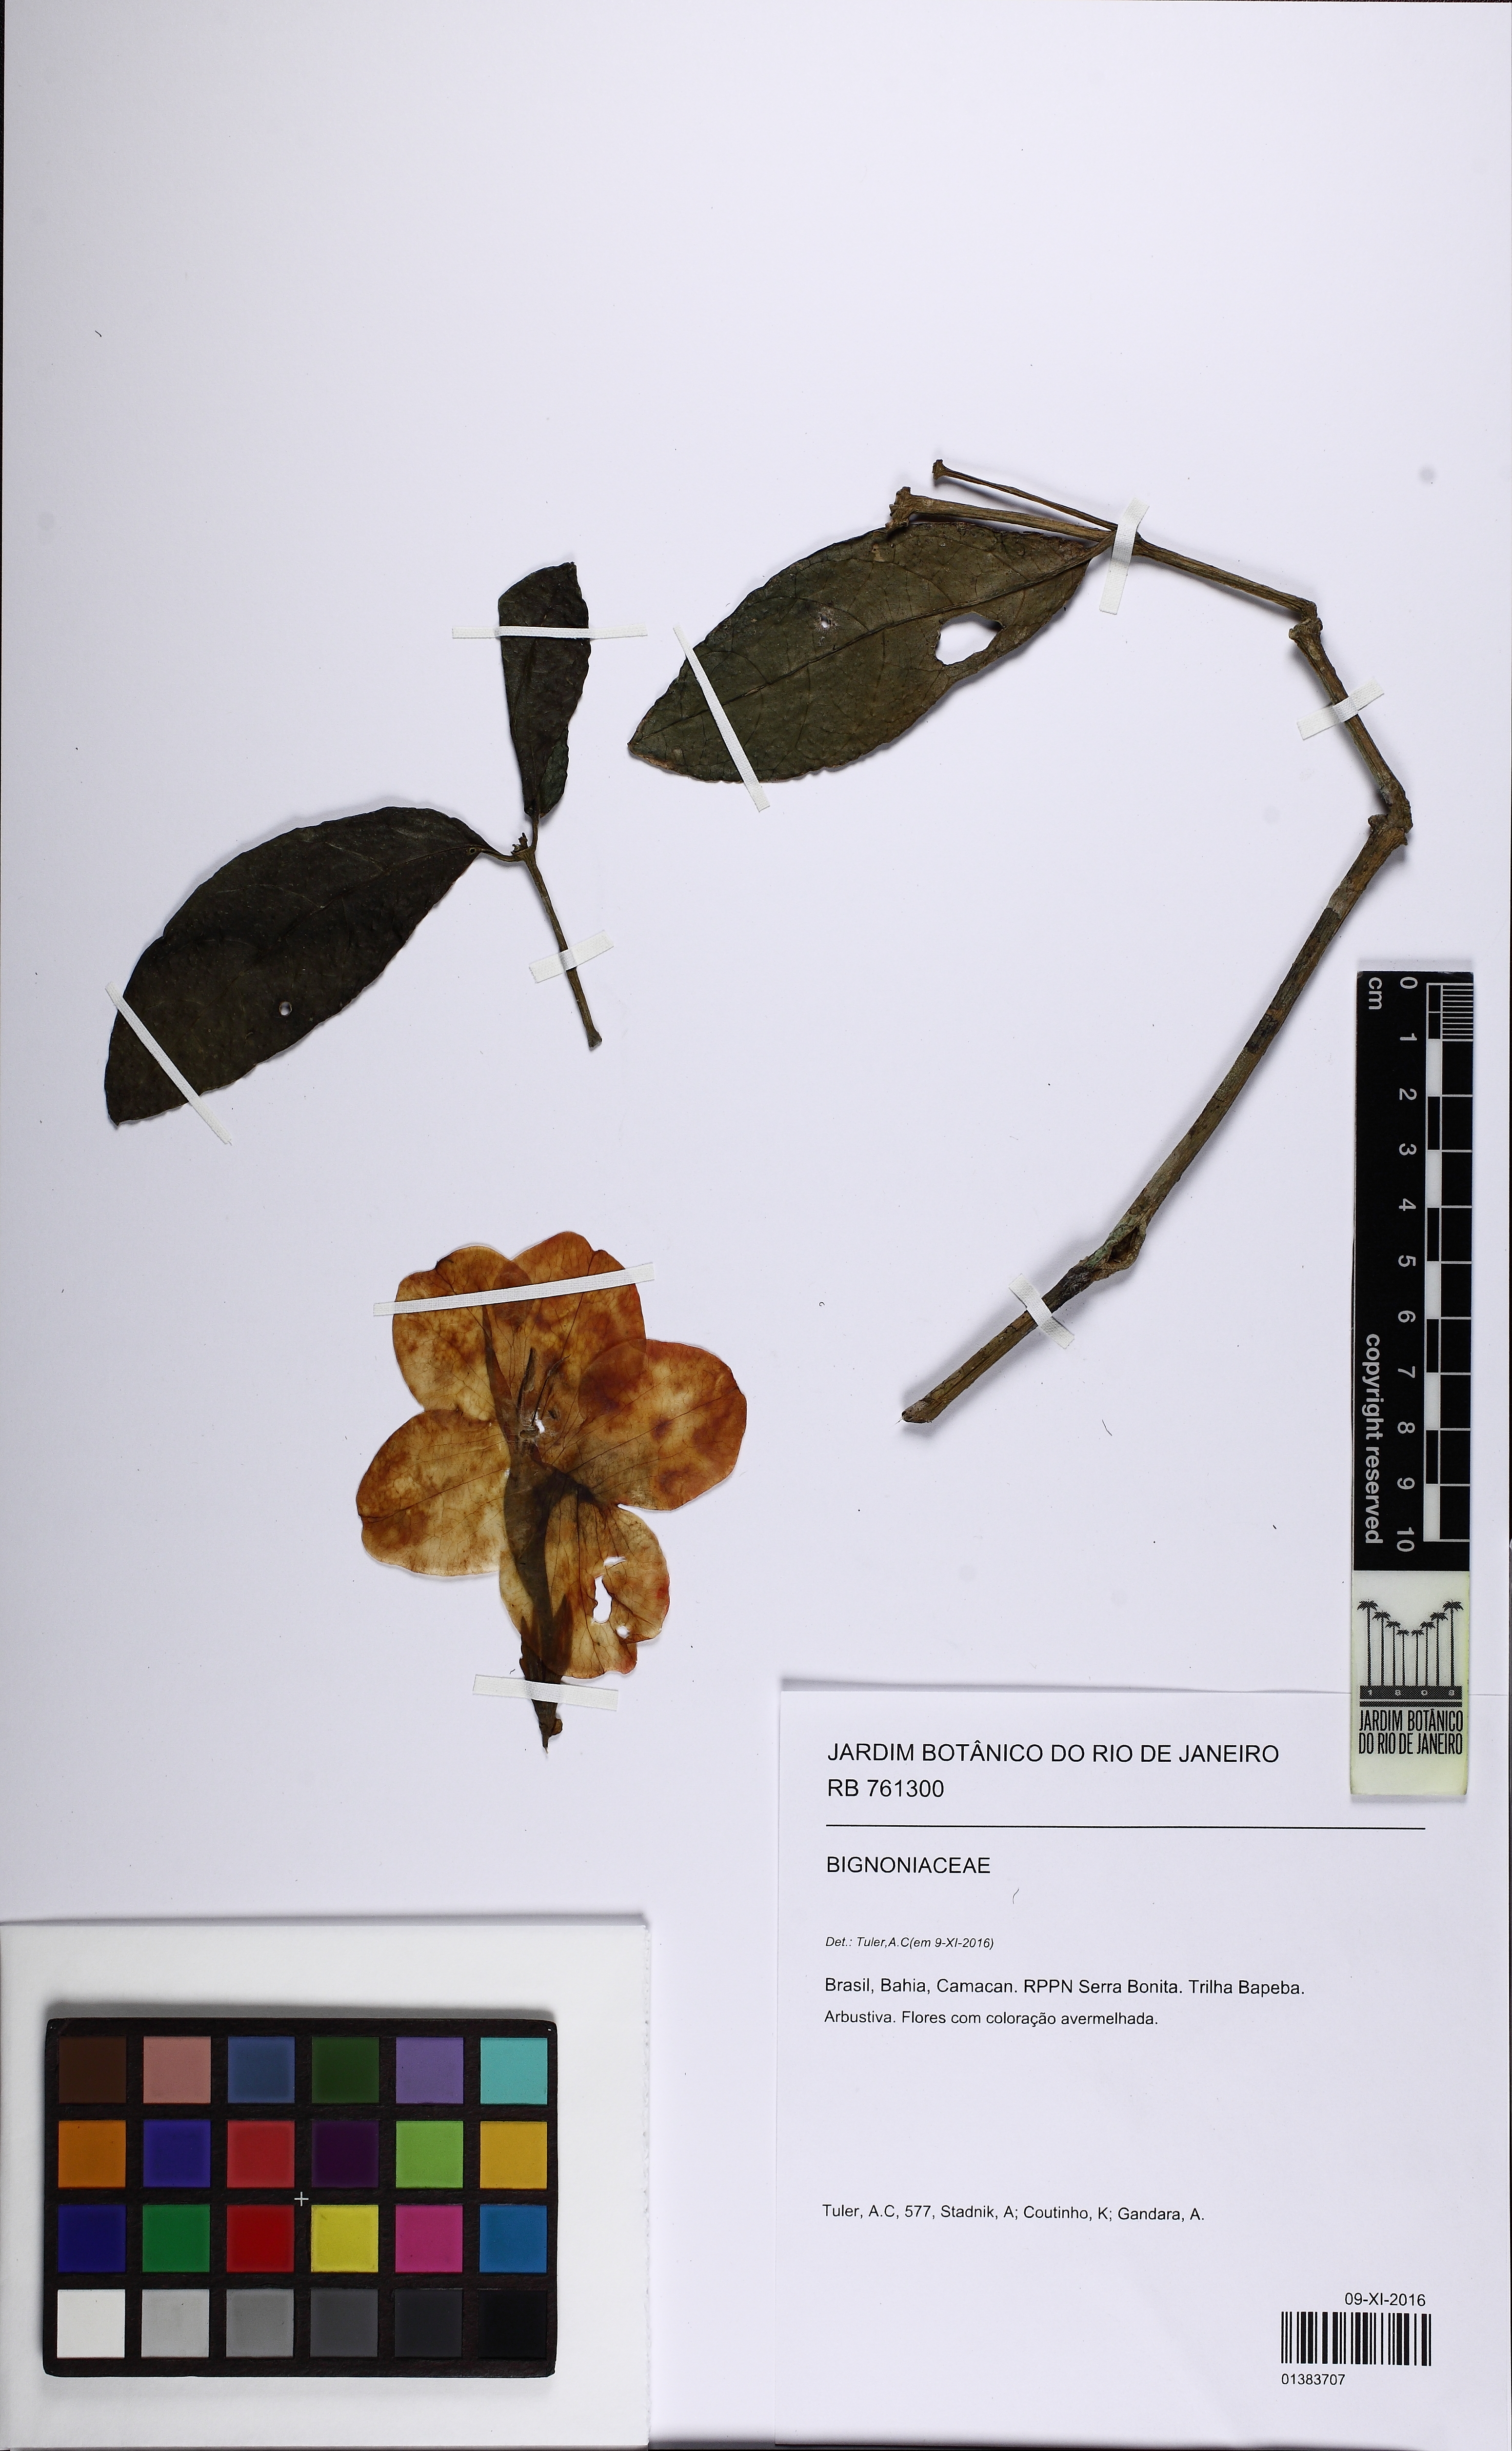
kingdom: Plantae
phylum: Tracheophyta
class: Magnoliopsida
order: Lamiales
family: Bignoniaceae
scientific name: Bignoniaceae
